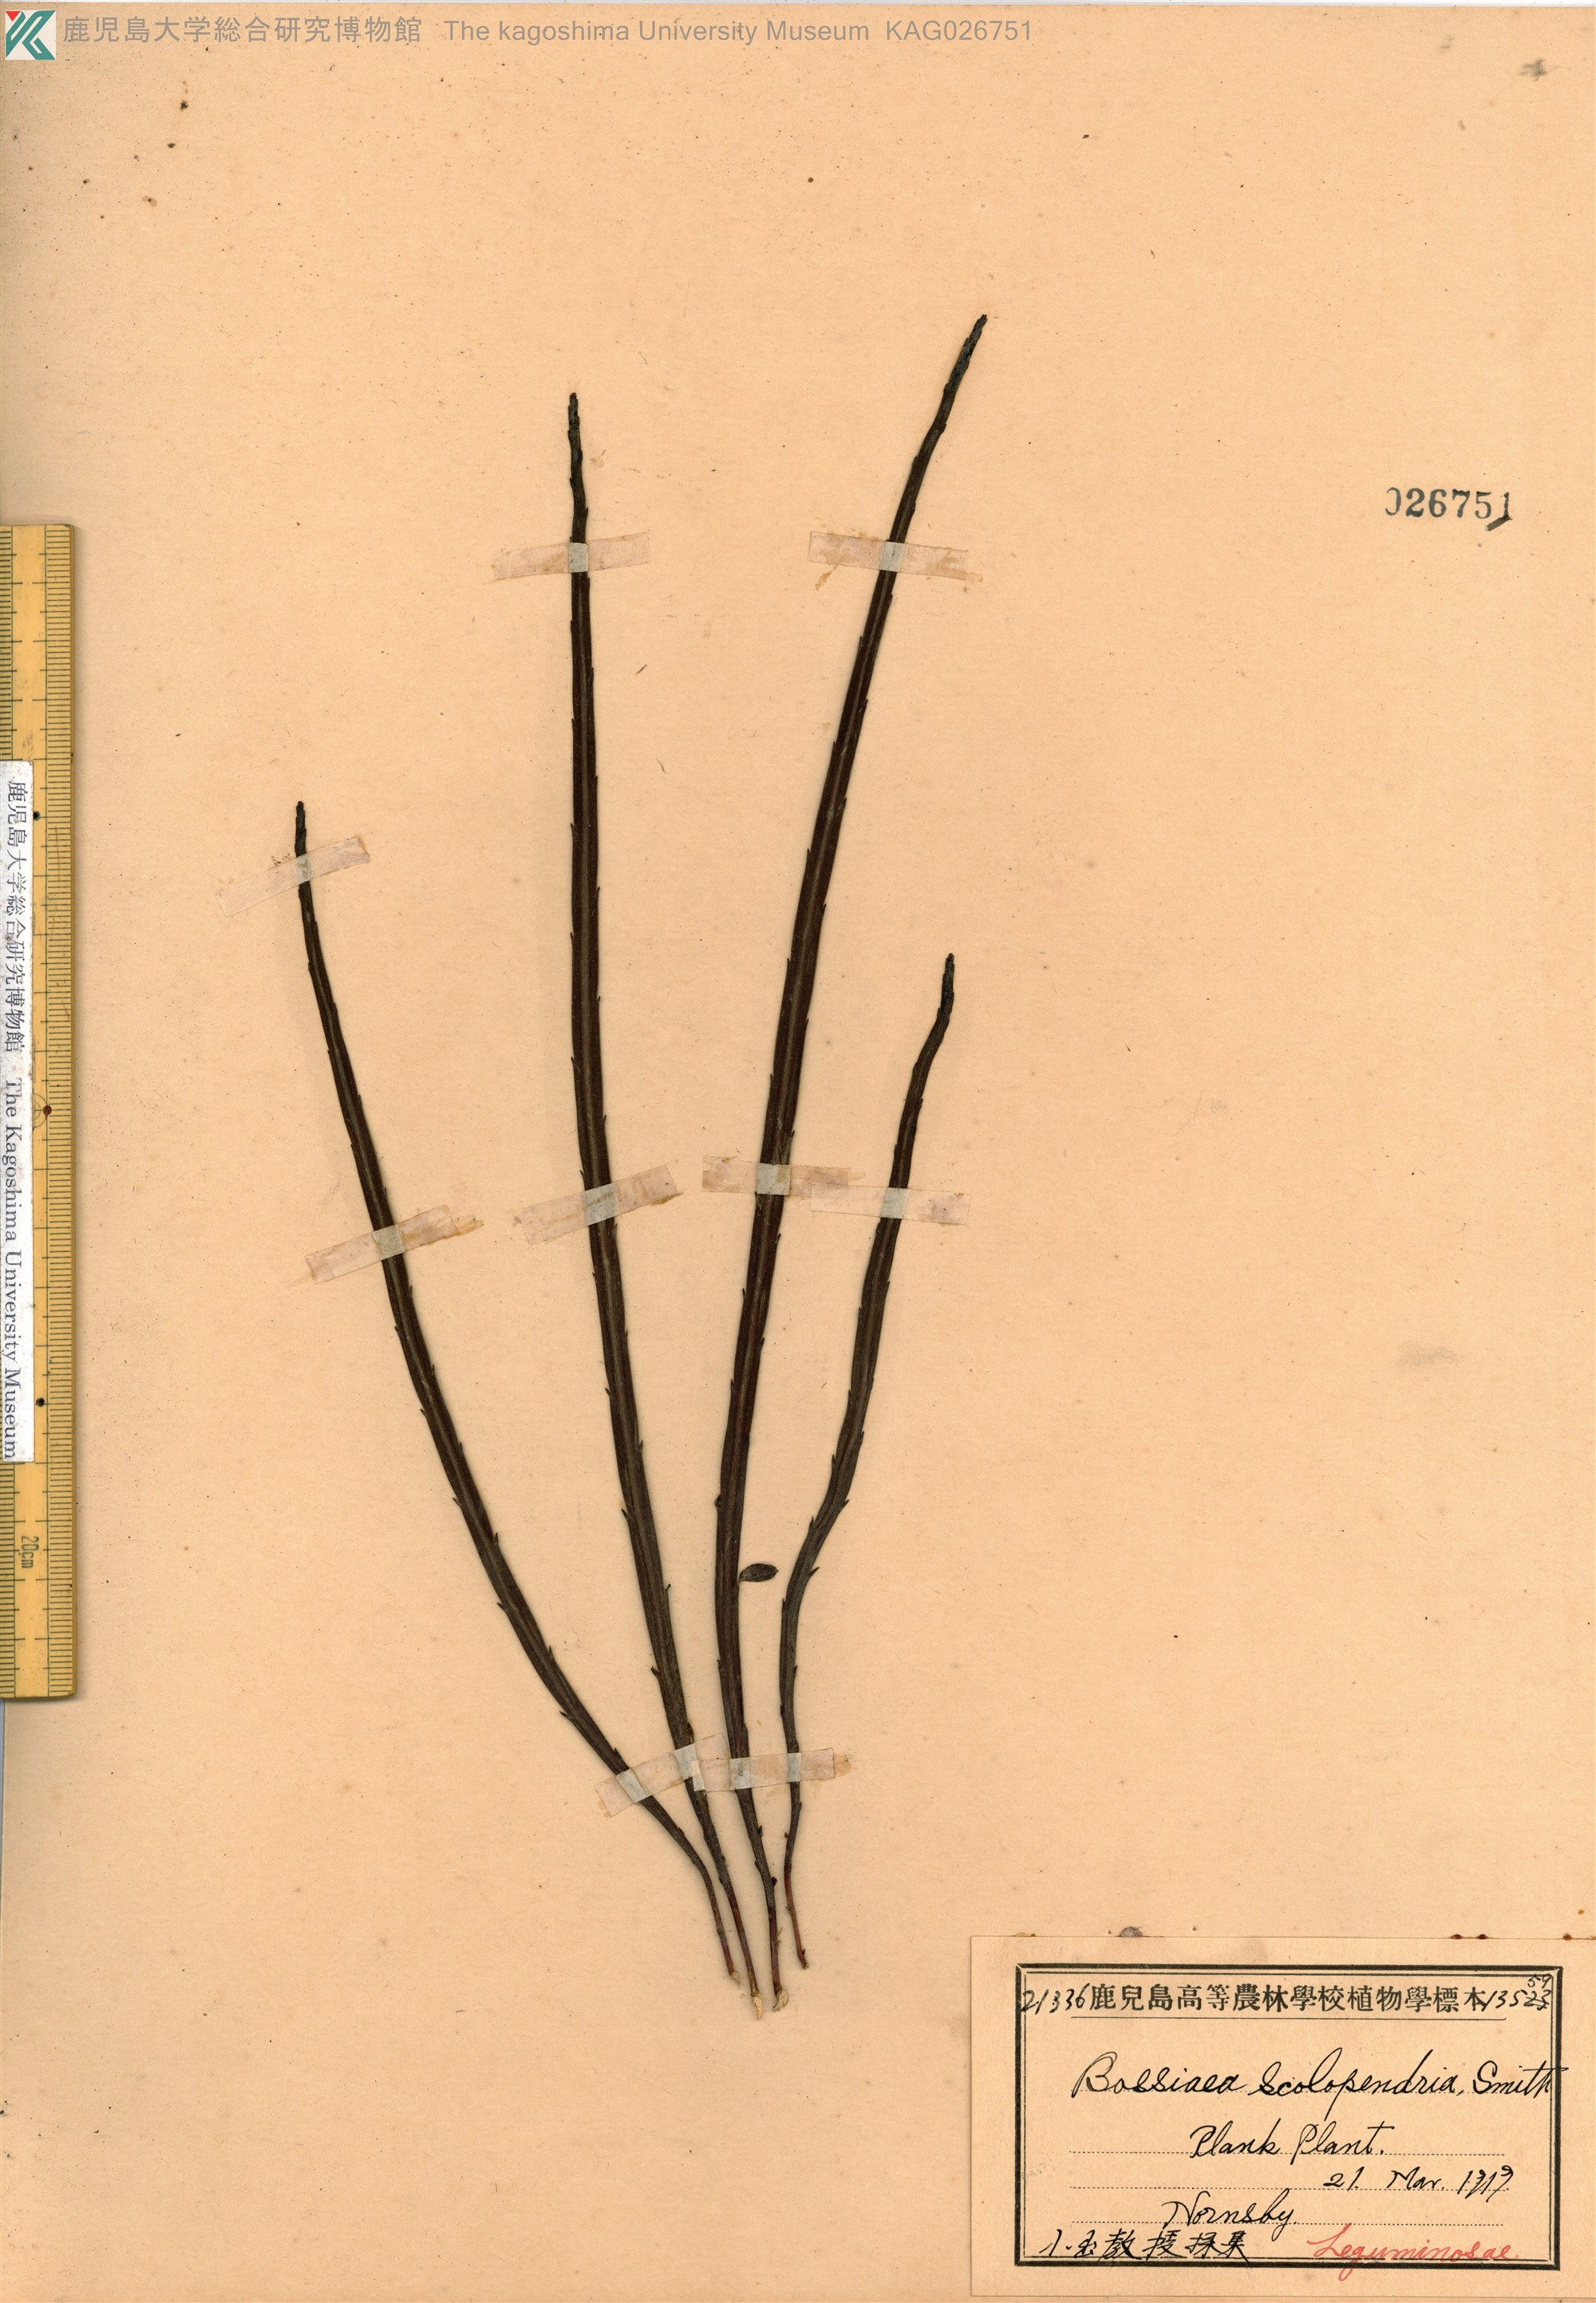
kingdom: Plantae
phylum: Tracheophyta
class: Magnoliopsida
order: Fabales
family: Fabaceae
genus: Bossiaea
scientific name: Bossiaea scolopendria
